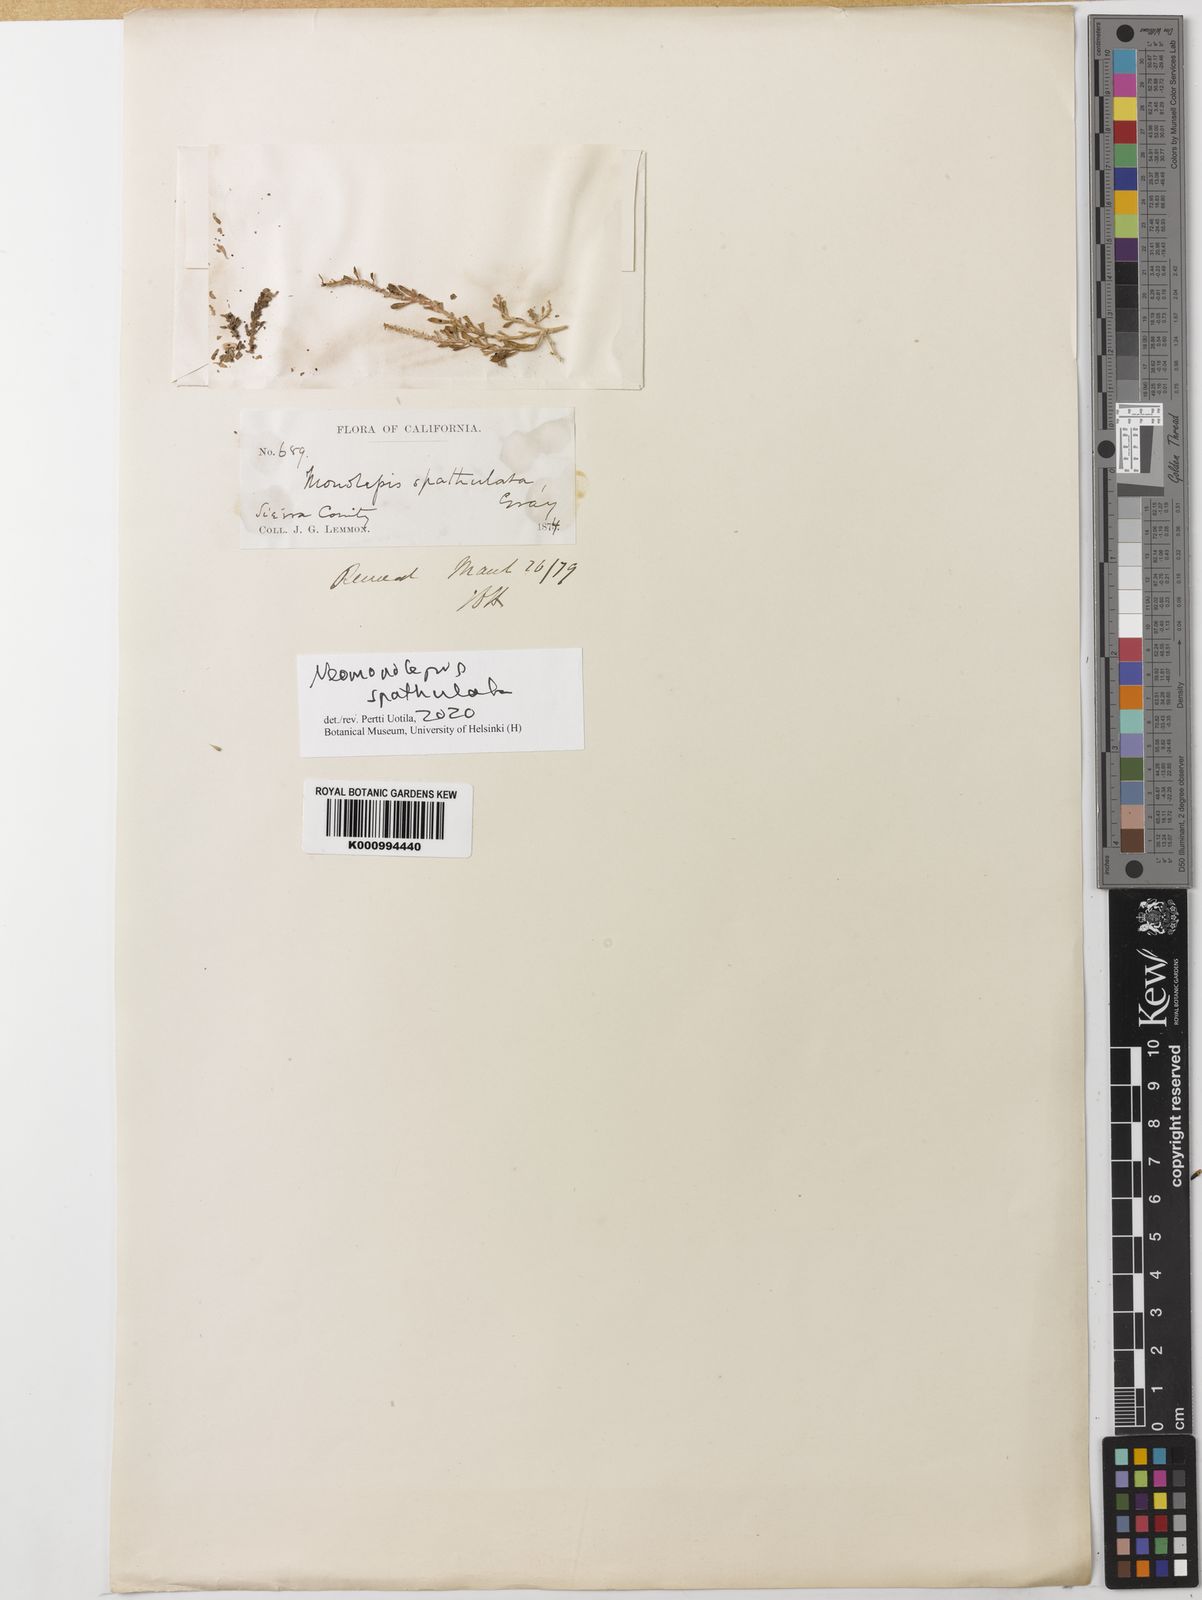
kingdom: Plantae
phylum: Tracheophyta
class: Magnoliopsida
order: Caryophyllales
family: Amaranthaceae
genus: Neomonolepis
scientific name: Neomonolepis spathulata
